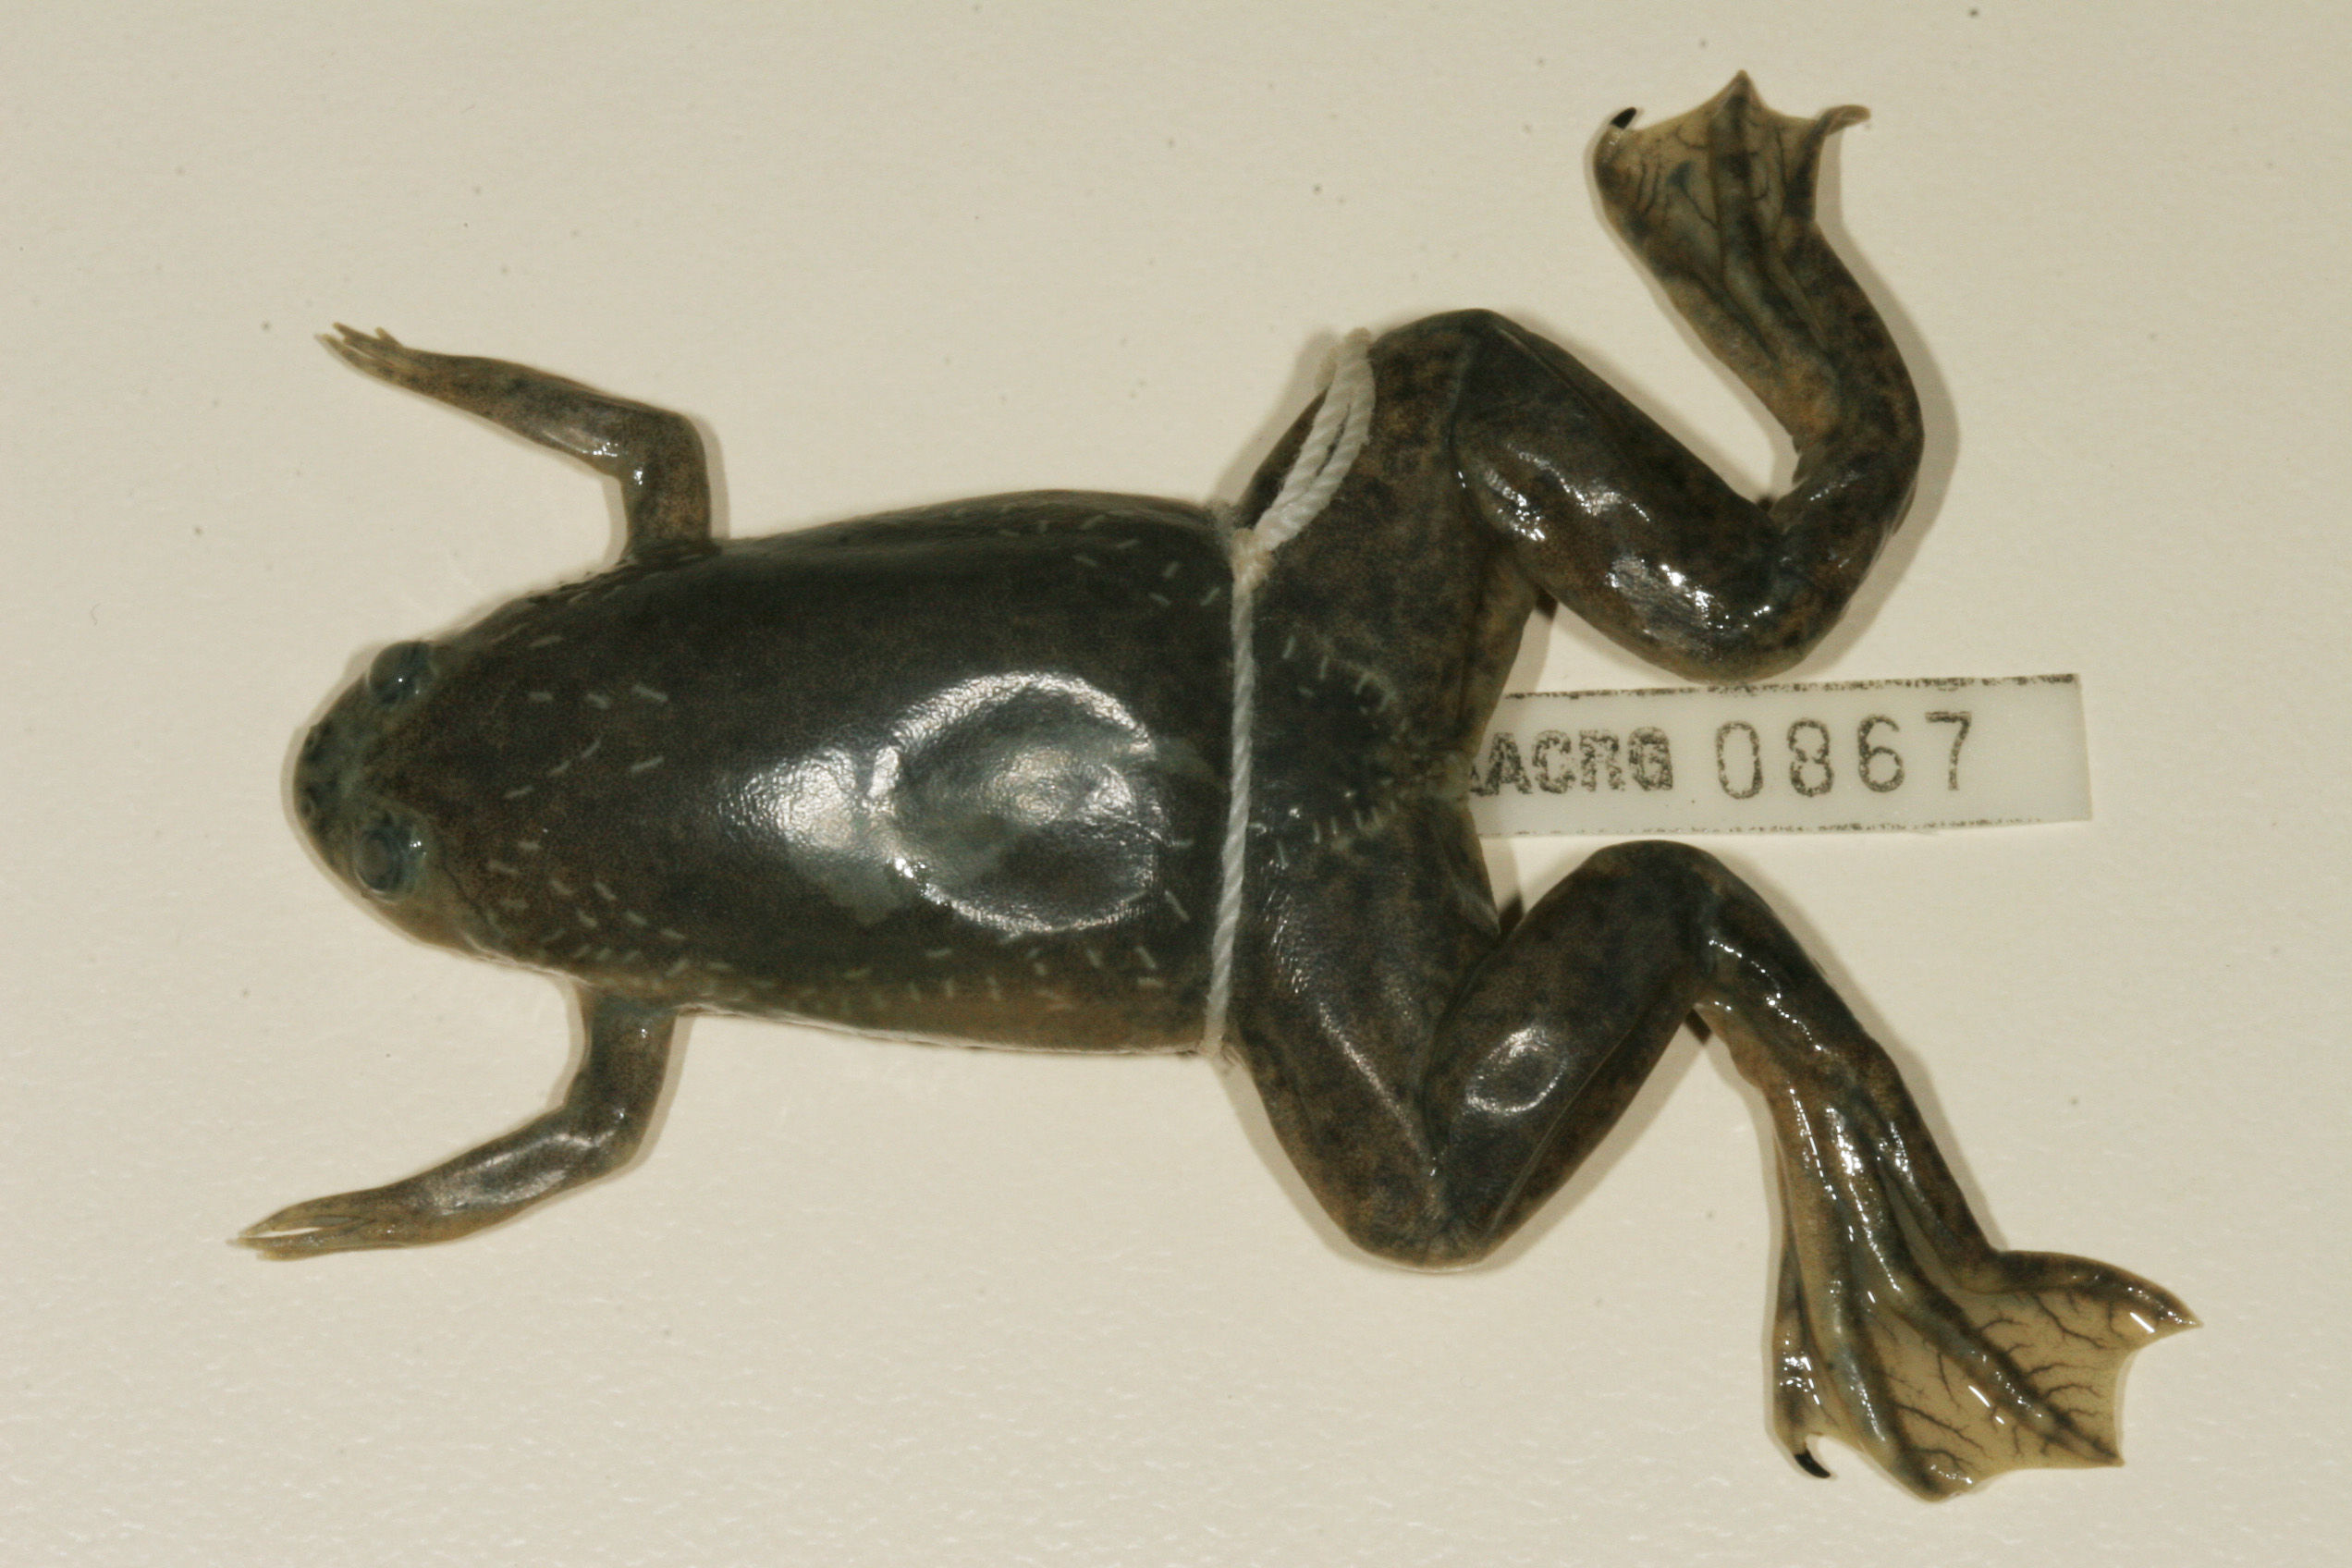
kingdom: Animalia
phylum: Chordata
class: Amphibia
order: Anura
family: Pipidae
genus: Xenopus
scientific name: Xenopus laevis
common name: African clawed frog
